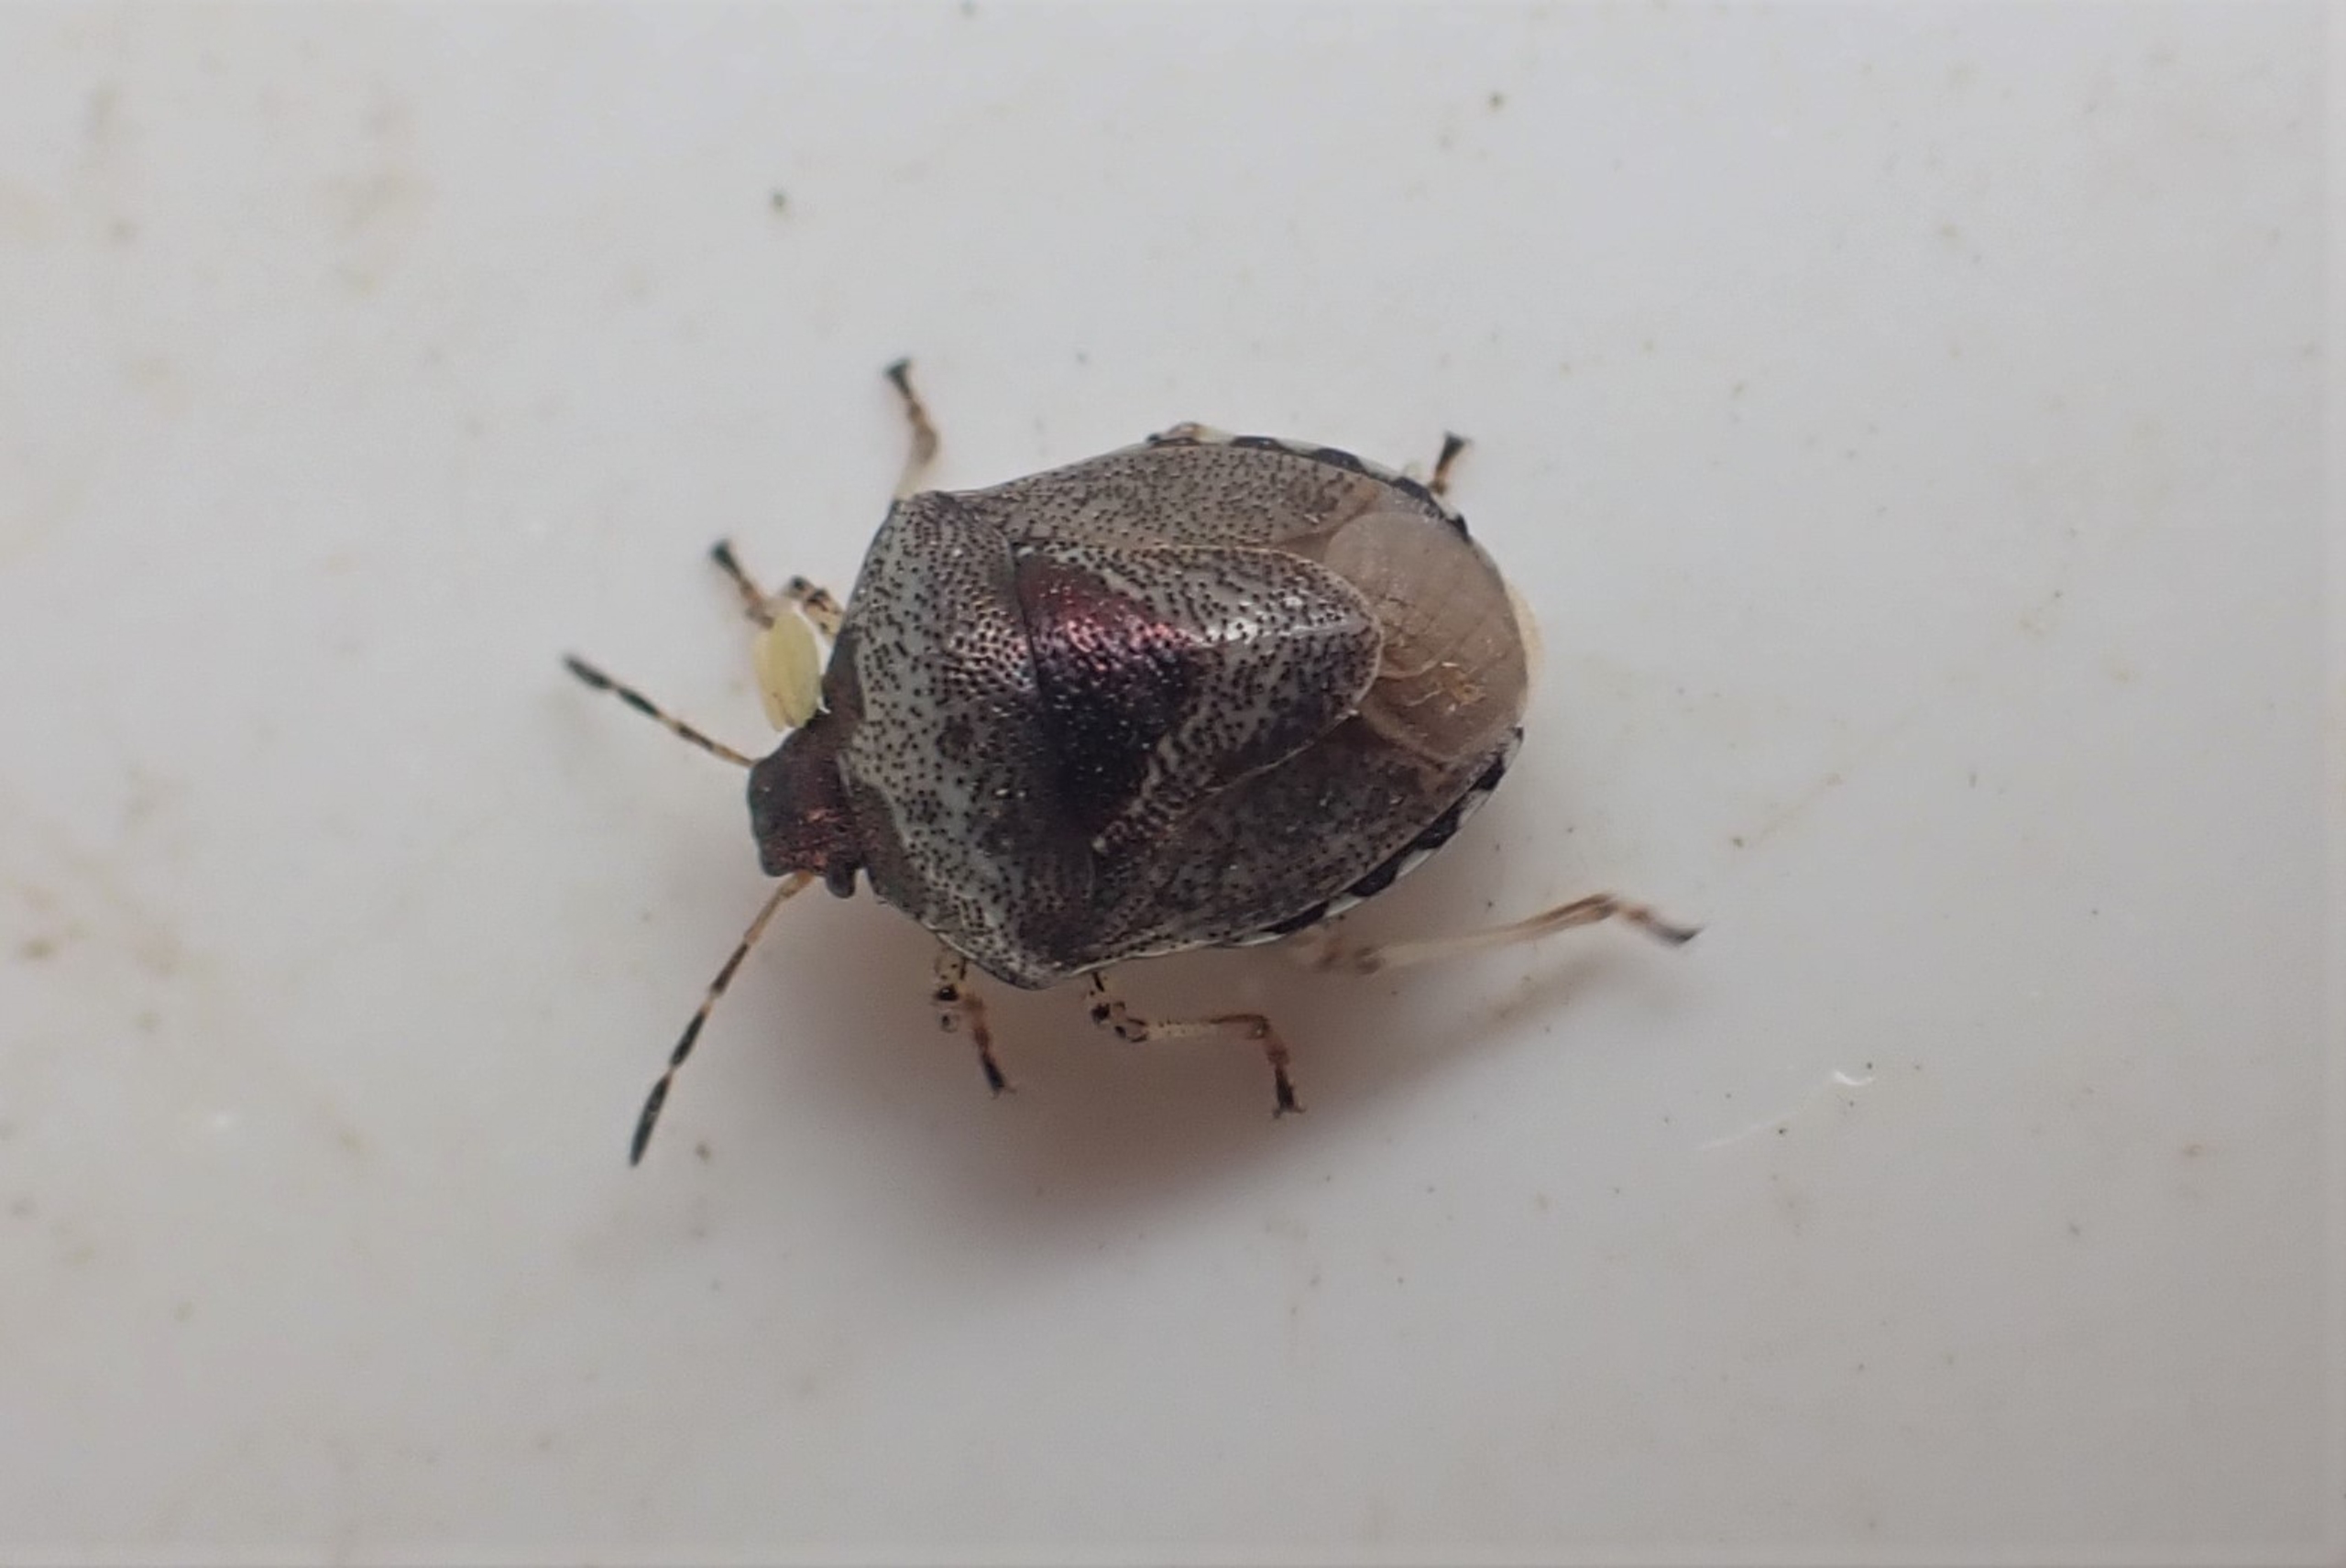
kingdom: Animalia
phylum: Arthropoda
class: Insecta
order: Hemiptera
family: Pentatomidae
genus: Eysarcoris
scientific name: Eysarcoris venustissimus
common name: Gylden urtetæge
